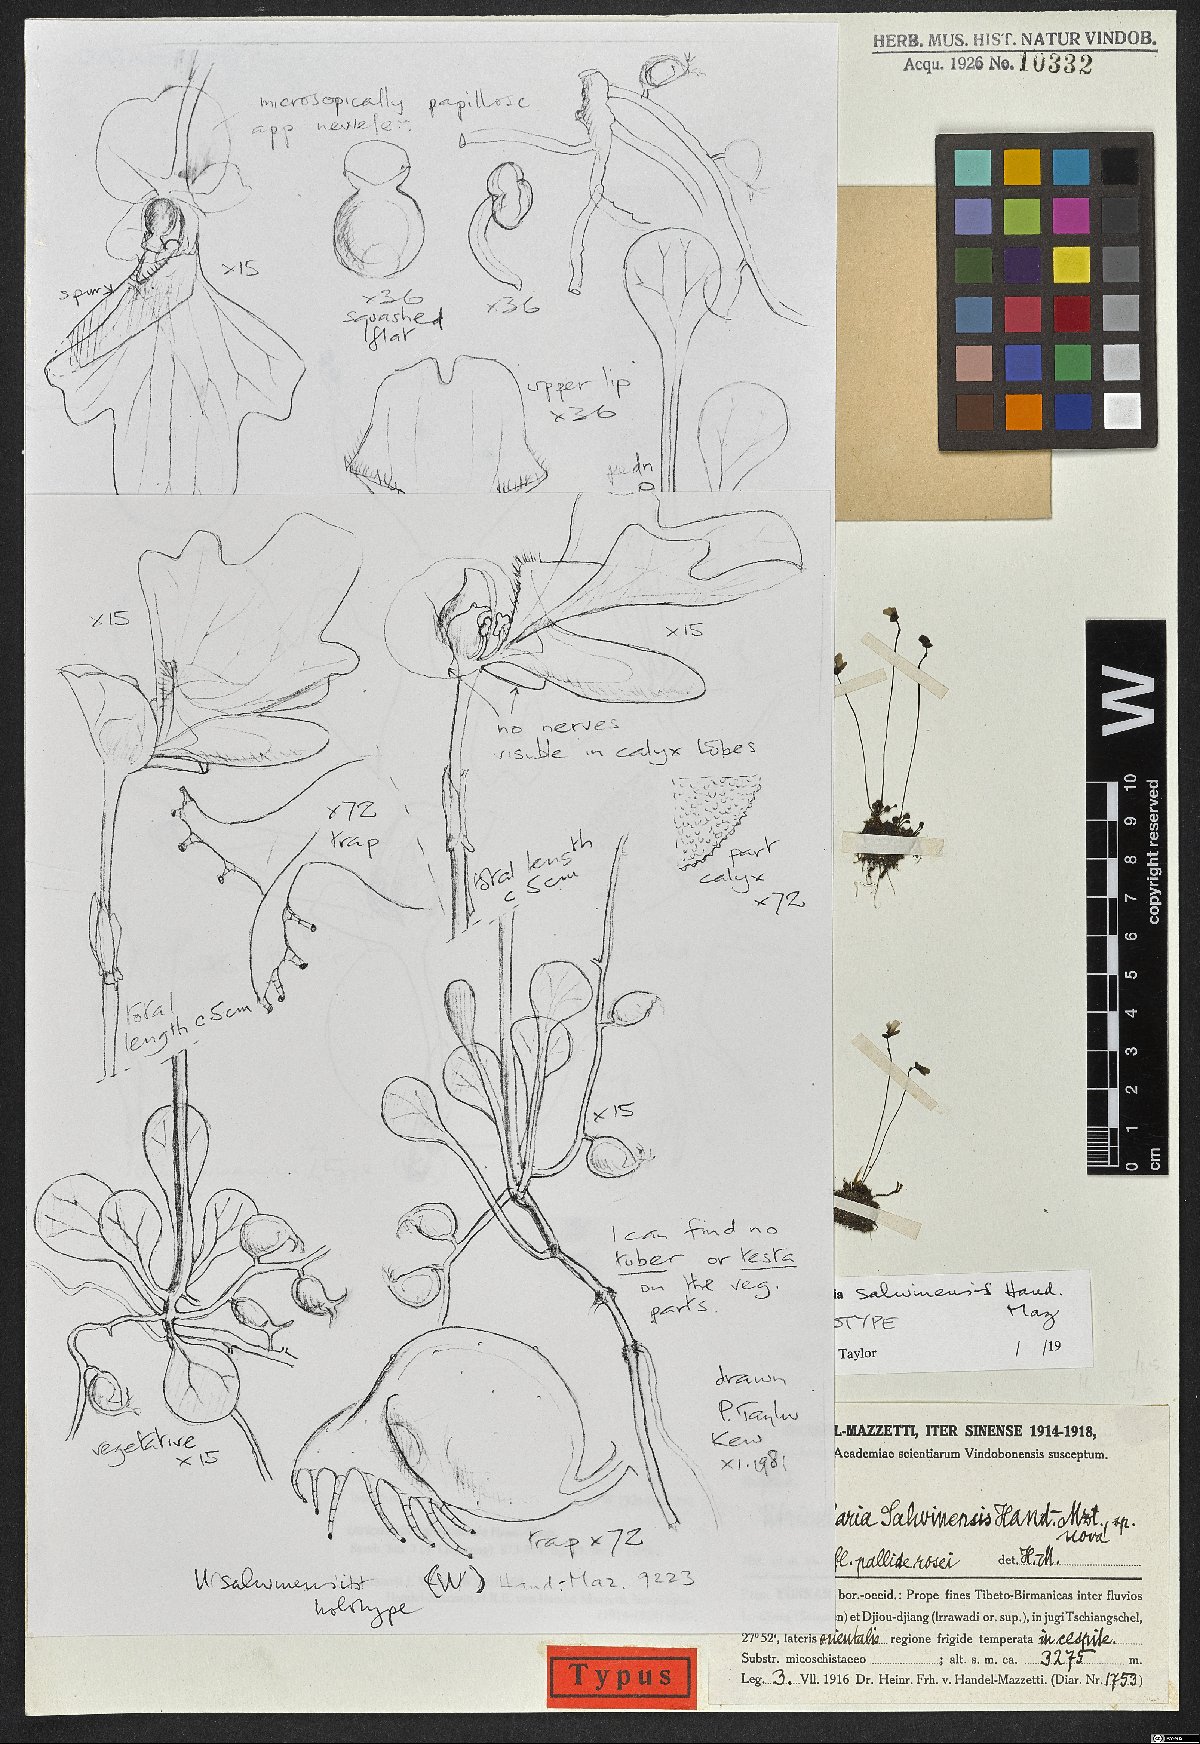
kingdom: Plantae
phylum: Tracheophyta
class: Magnoliopsida
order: Lamiales
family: Lentibulariaceae
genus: Utricularia
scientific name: Utricularia salwinensis
